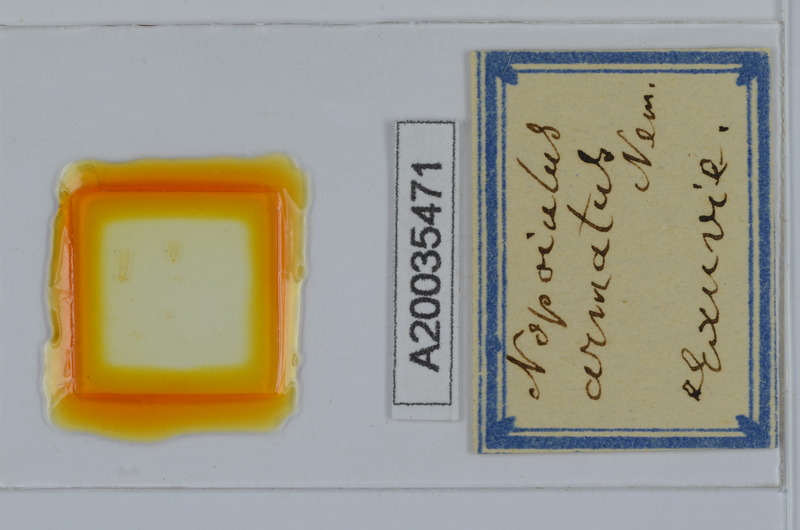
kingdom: Animalia
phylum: Arthropoda
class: Diplopoda
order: Julida
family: Blaniulidae
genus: Nopoiulus
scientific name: Nopoiulus kochii
